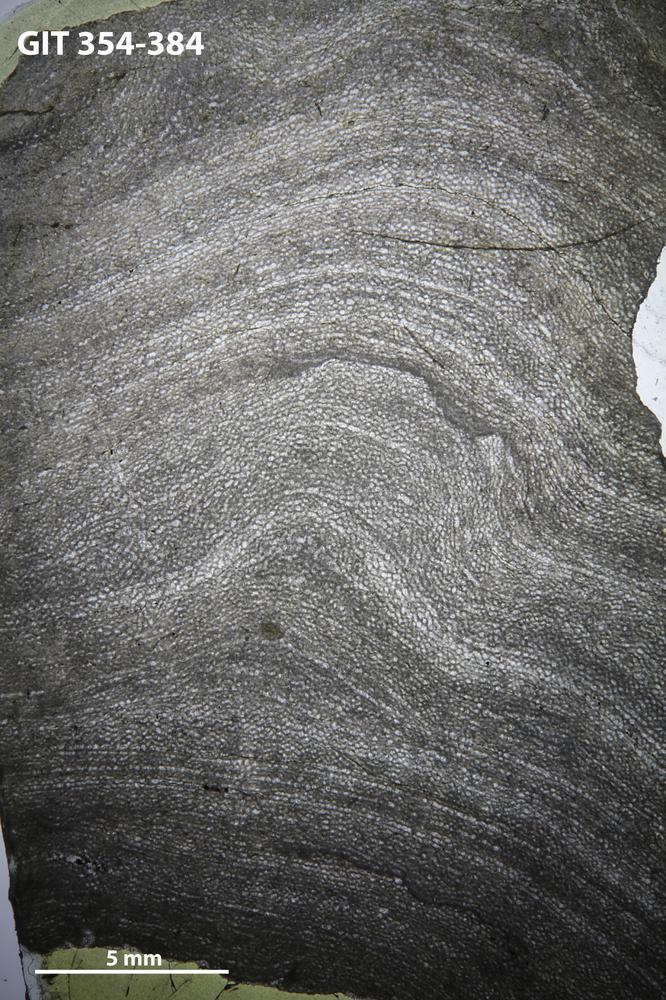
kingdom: Animalia
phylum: Porifera
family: Clathrodictyidae
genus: Clathrodictyon
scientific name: Clathrodictyon boreale
